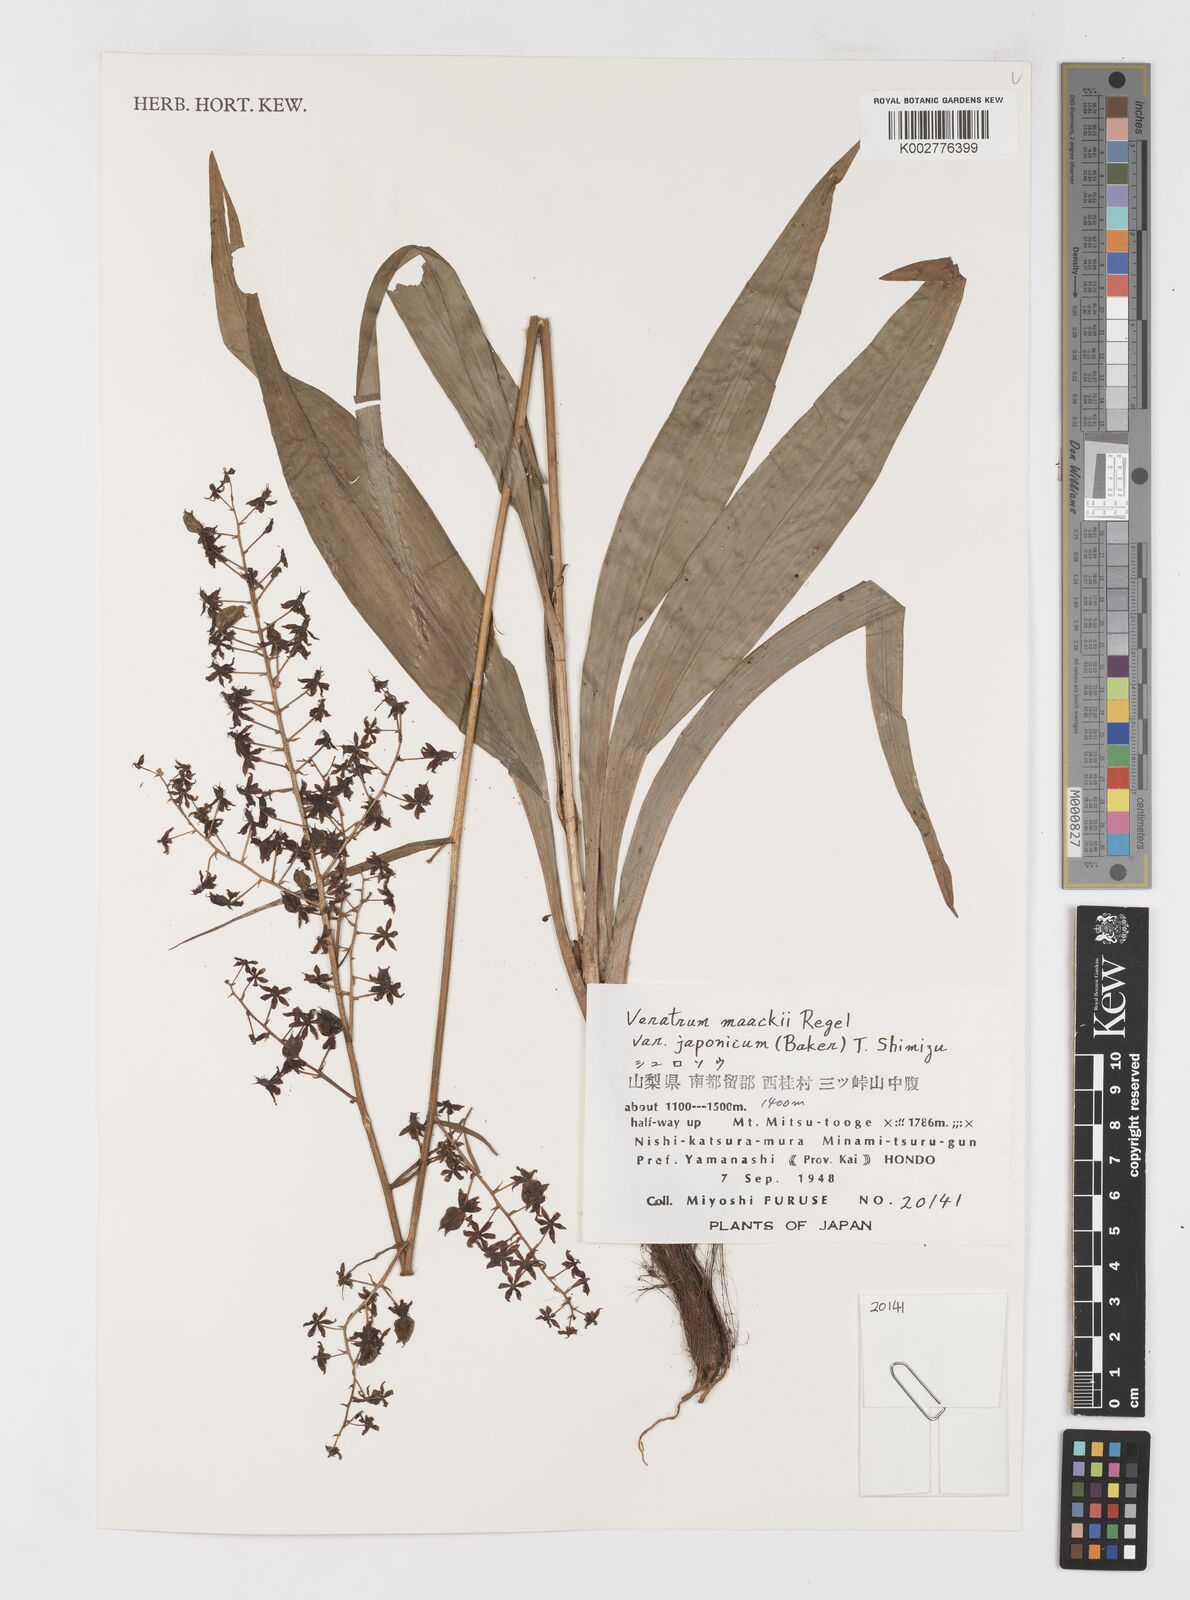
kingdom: Plantae
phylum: Tracheophyta
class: Liliopsida
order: Liliales
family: Melanthiaceae
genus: Veratrum
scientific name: Veratrum maackii
